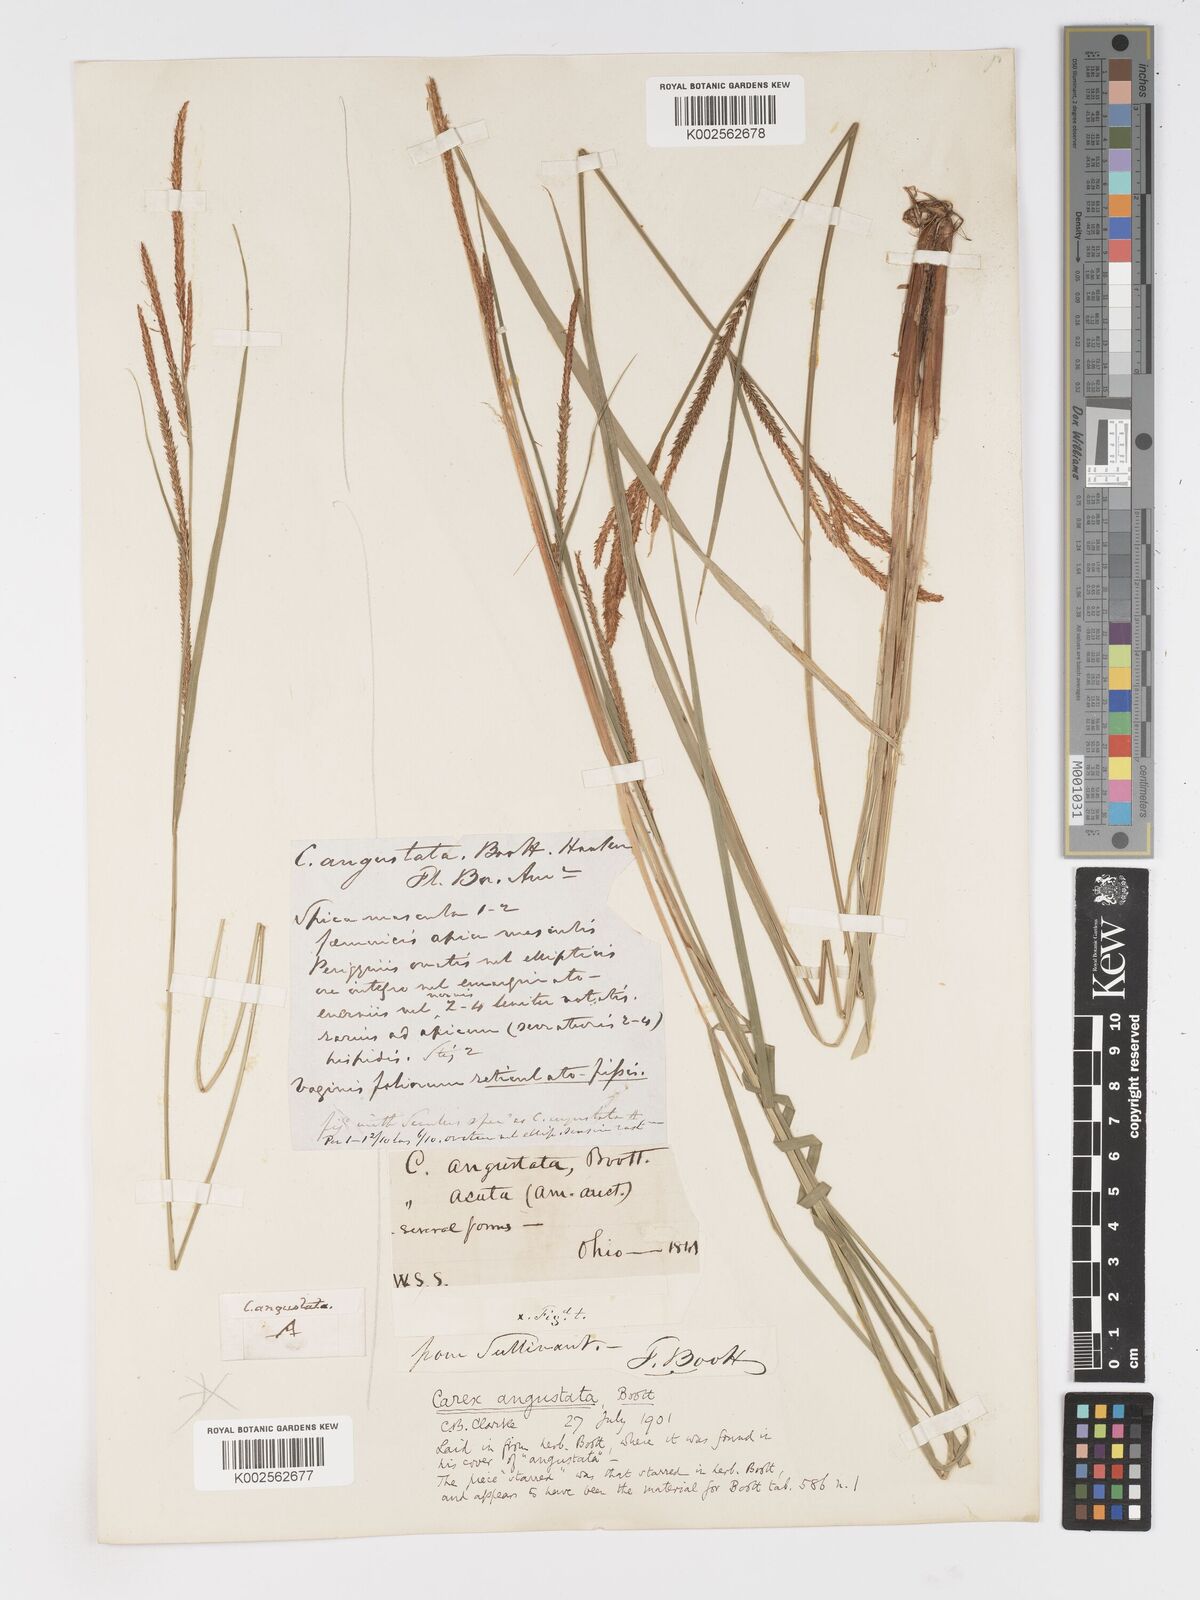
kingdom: Plantae
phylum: Tracheophyta
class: Liliopsida
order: Poales
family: Cyperaceae
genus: Carex
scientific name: Carex stricta
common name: Hummock sedge
